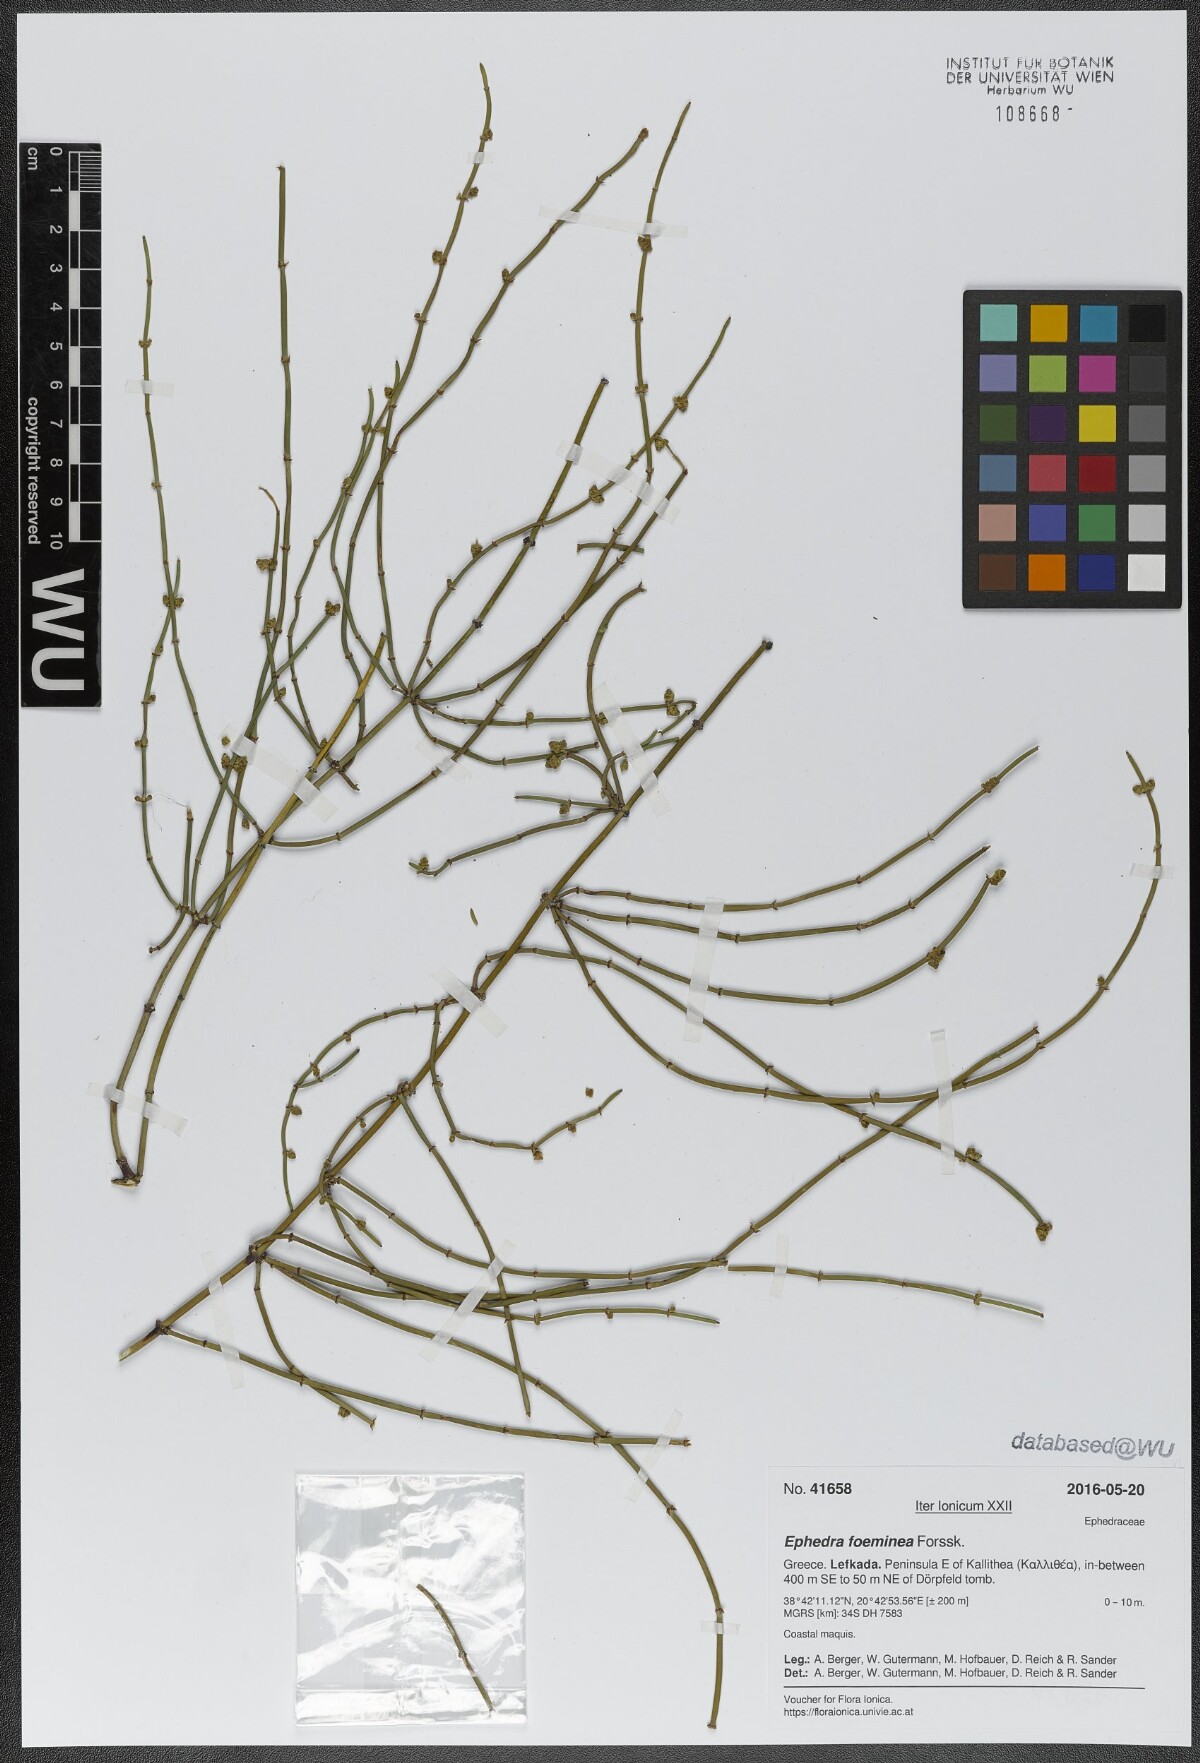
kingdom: Plantae
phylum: Tracheophyta
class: Gnetopsida
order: Ephedrales
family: Ephedraceae
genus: Ephedra
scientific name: Ephedra foeminea
